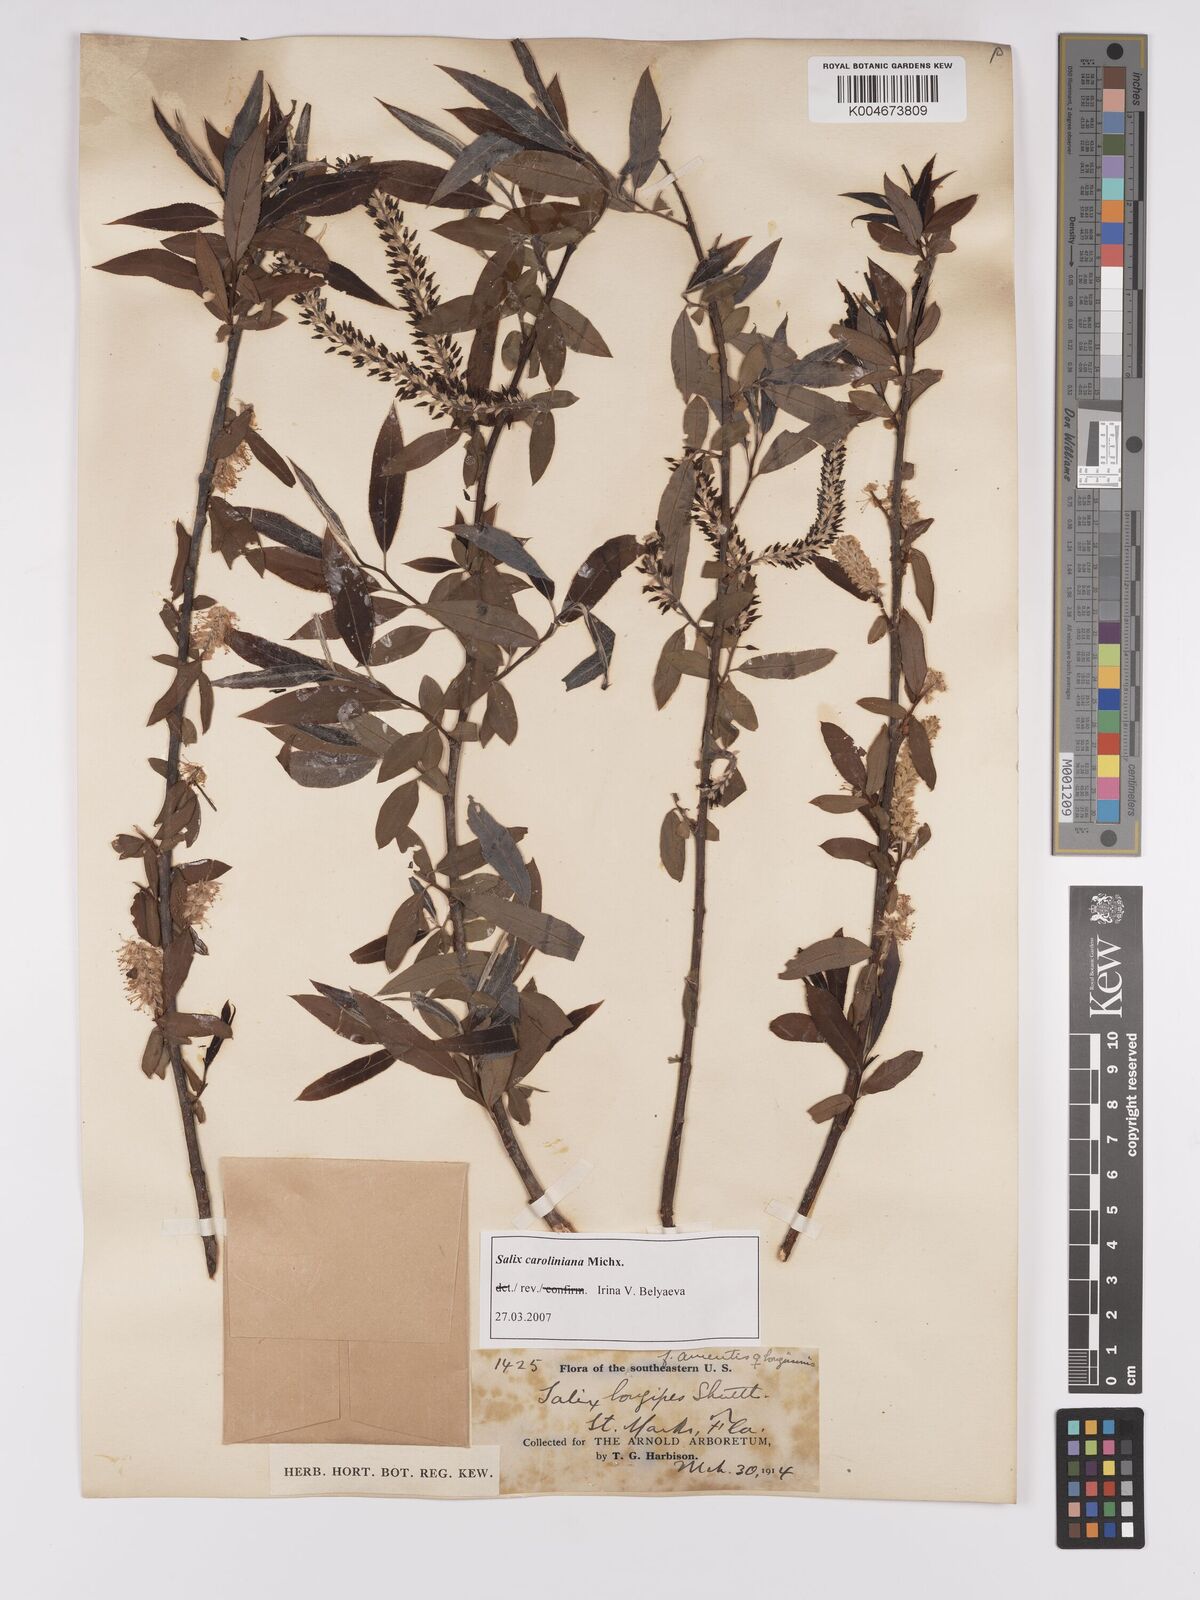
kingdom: Plantae
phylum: Tracheophyta
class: Magnoliopsida
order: Malpighiales
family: Salicaceae
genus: Salix
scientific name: Salix caroliniana
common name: Carolina willow
